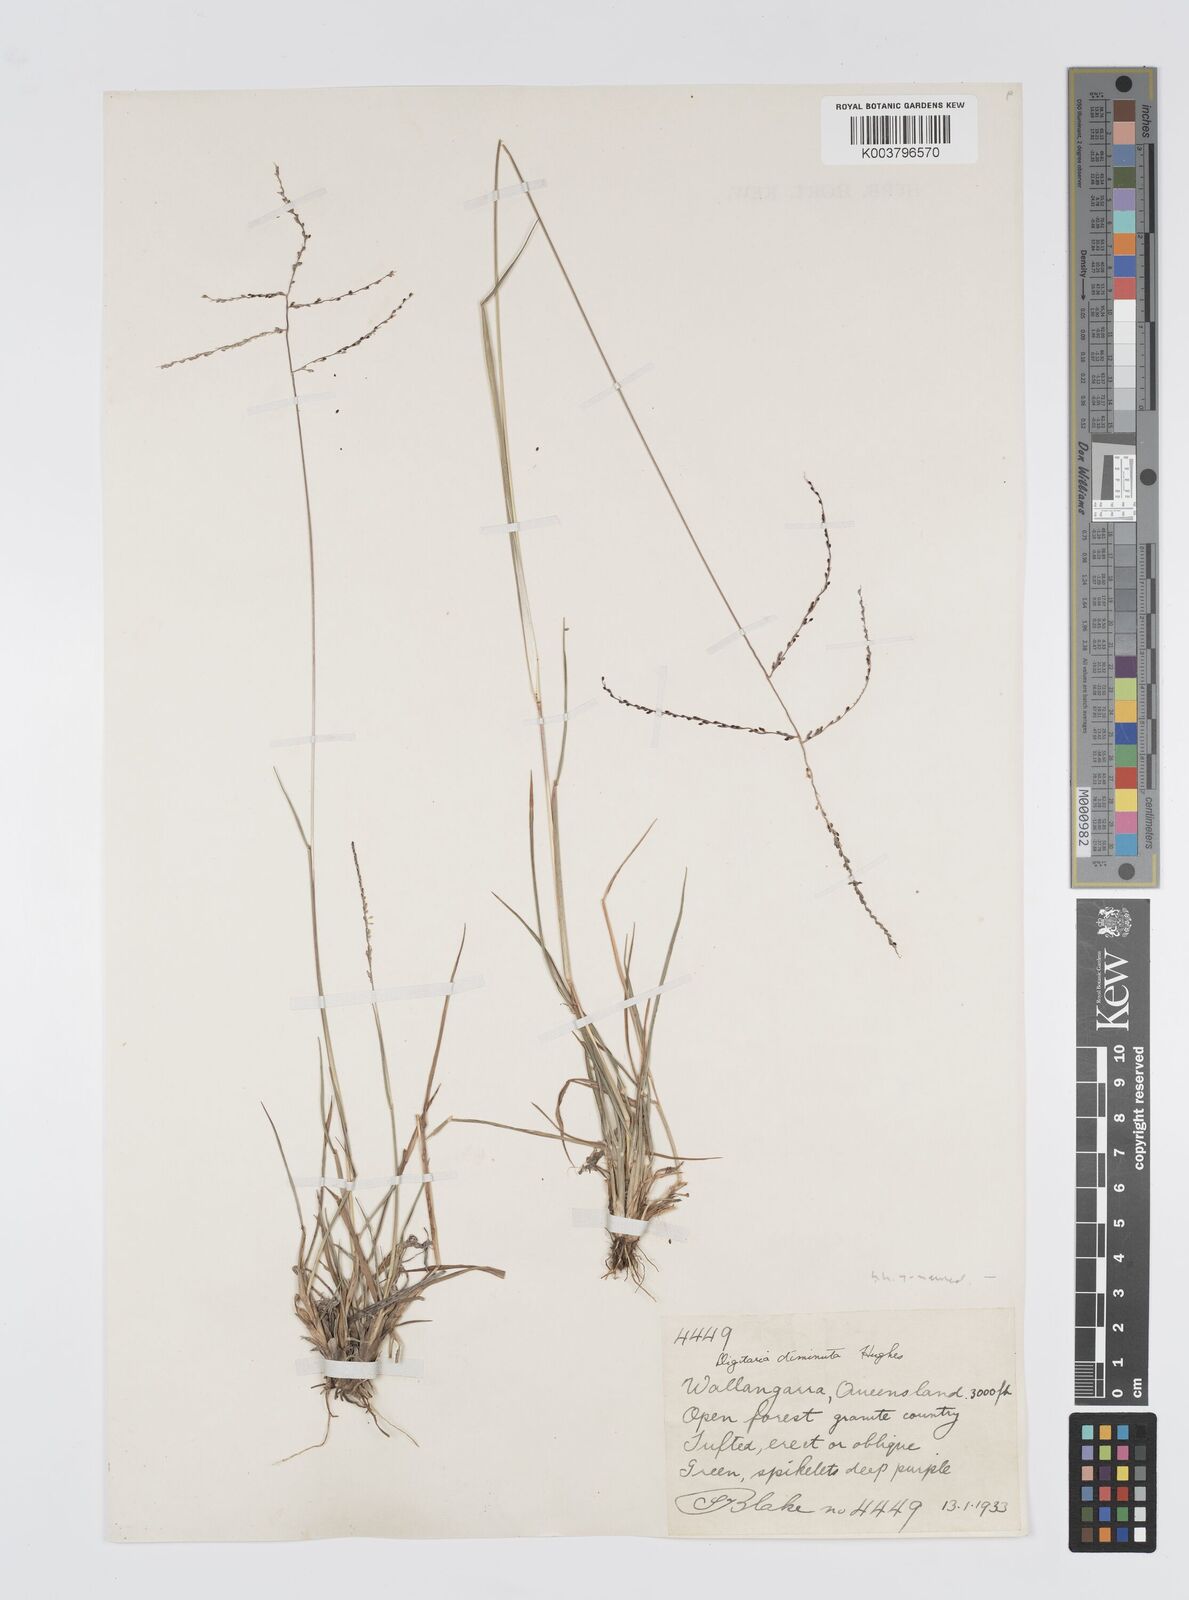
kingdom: Plantae
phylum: Tracheophyta
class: Liliopsida
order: Poales
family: Poaceae
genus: Digitaria
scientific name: Digitaria breviglumis
